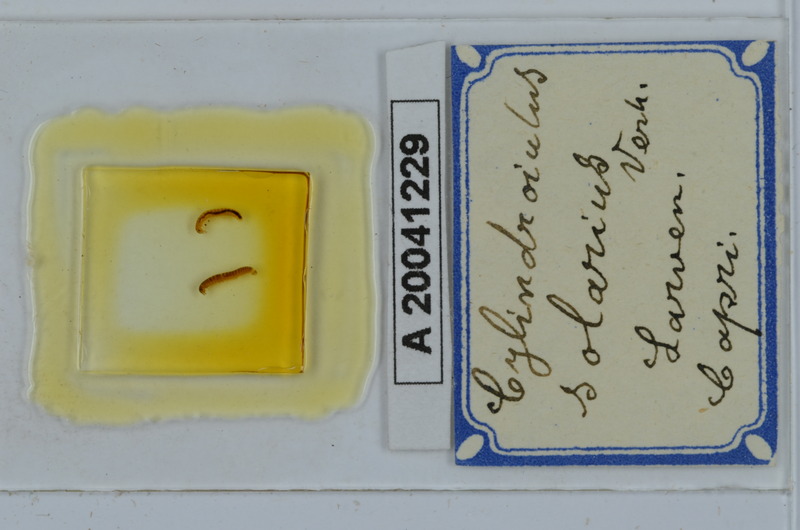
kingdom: Animalia
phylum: Arthropoda
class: Diplopoda
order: Julida
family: Julidae
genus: Cylindroiulus
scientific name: Cylindroiulus solarius
